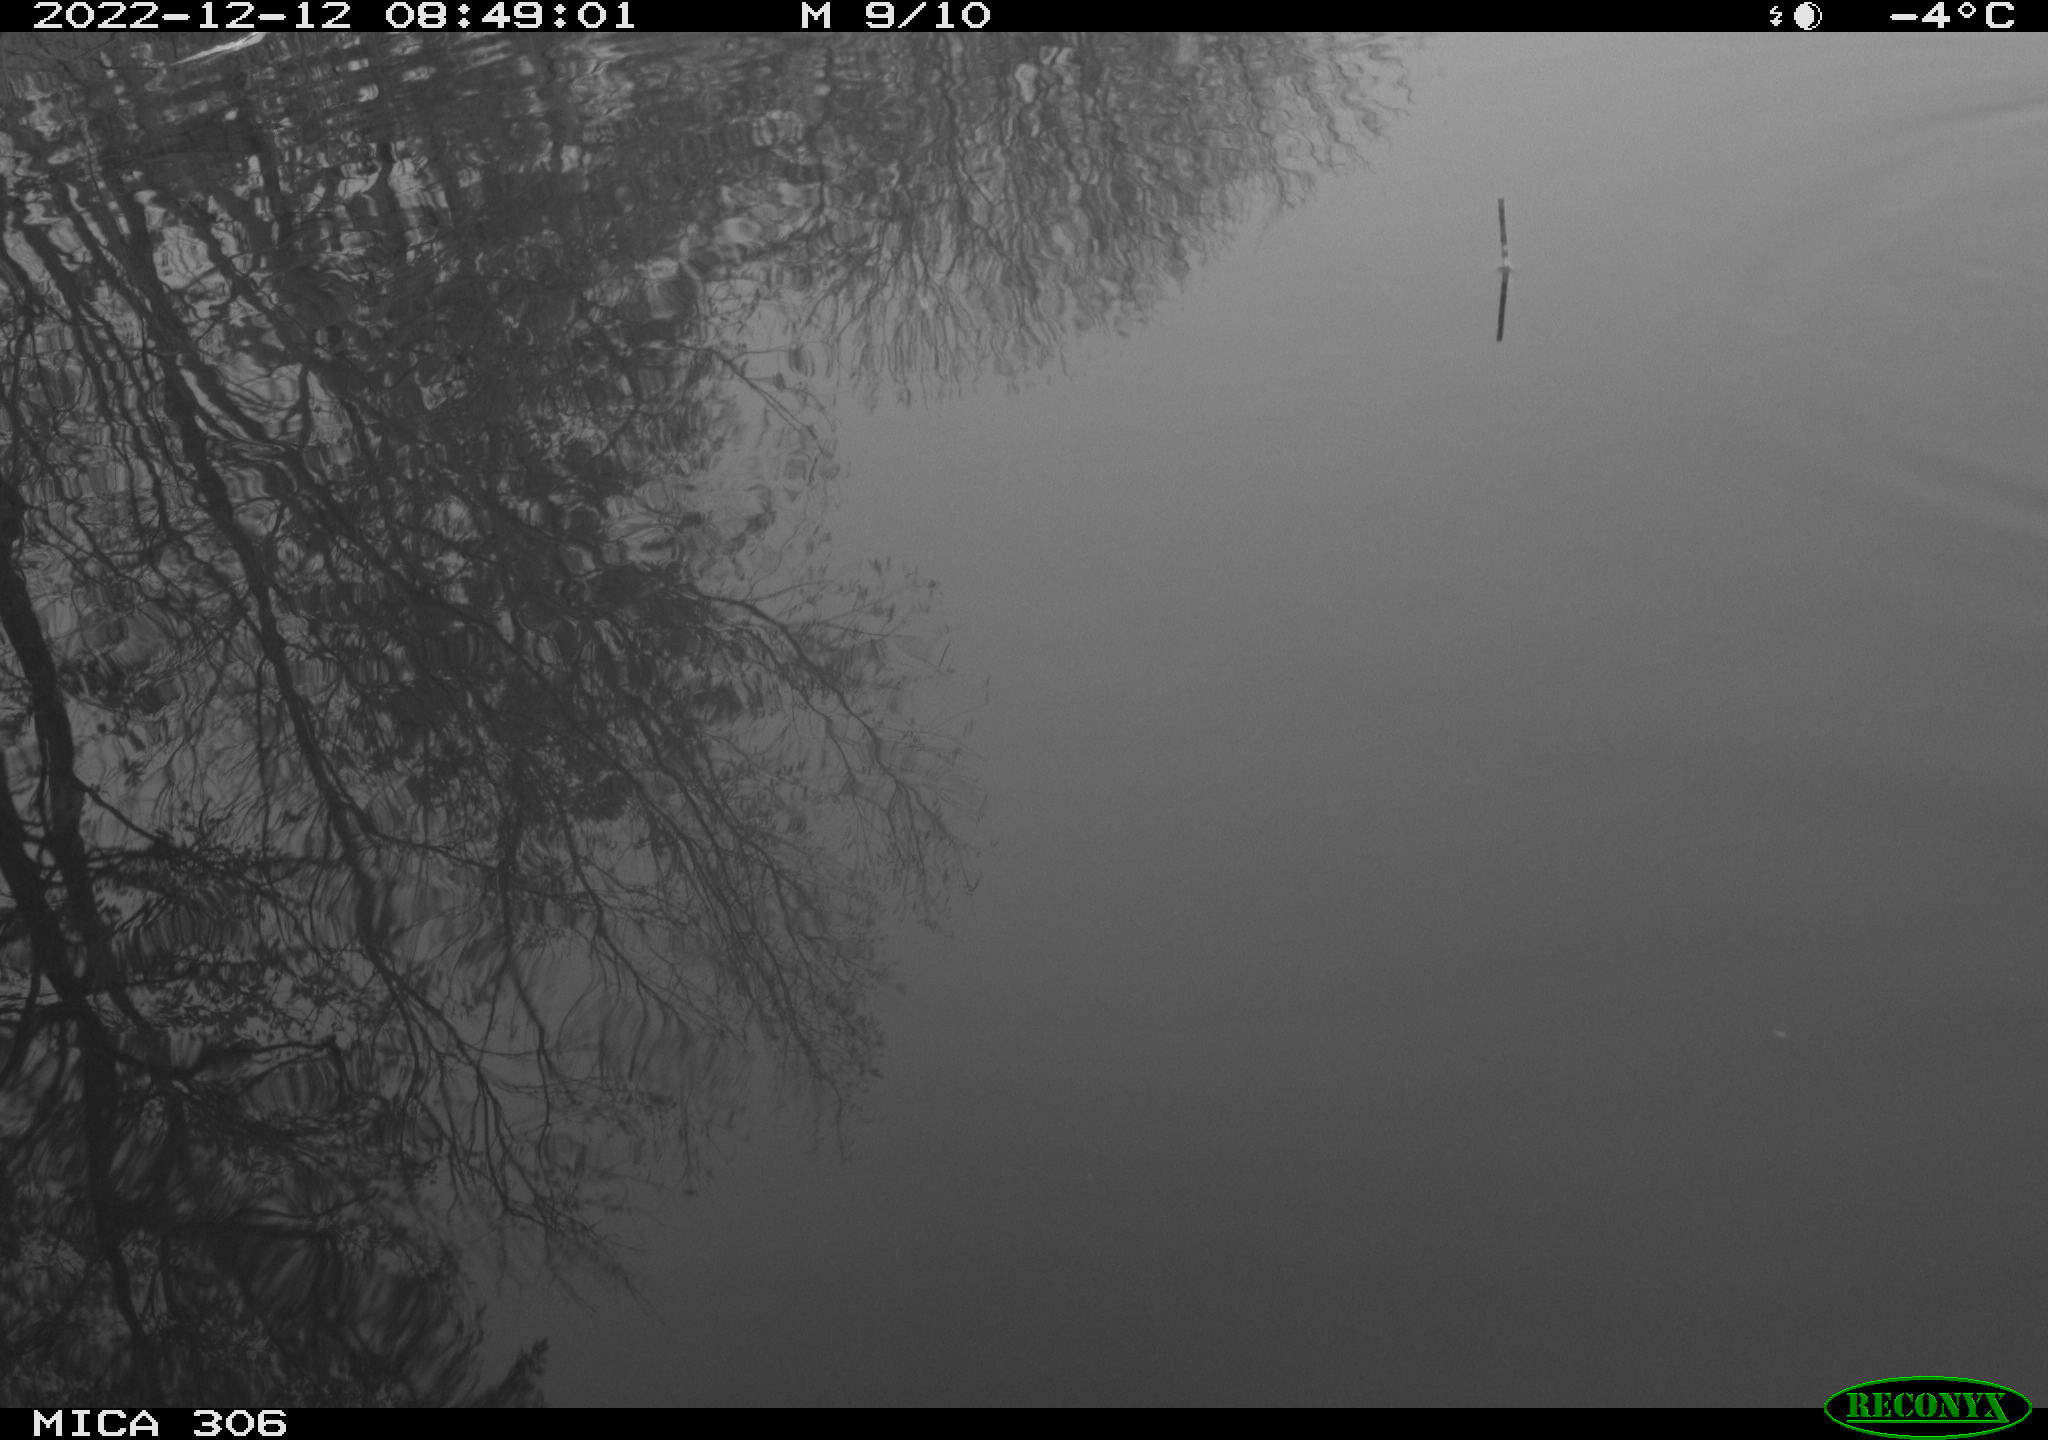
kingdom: Animalia
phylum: Chordata
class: Aves
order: Anseriformes
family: Anatidae
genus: Anas
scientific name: Anas
